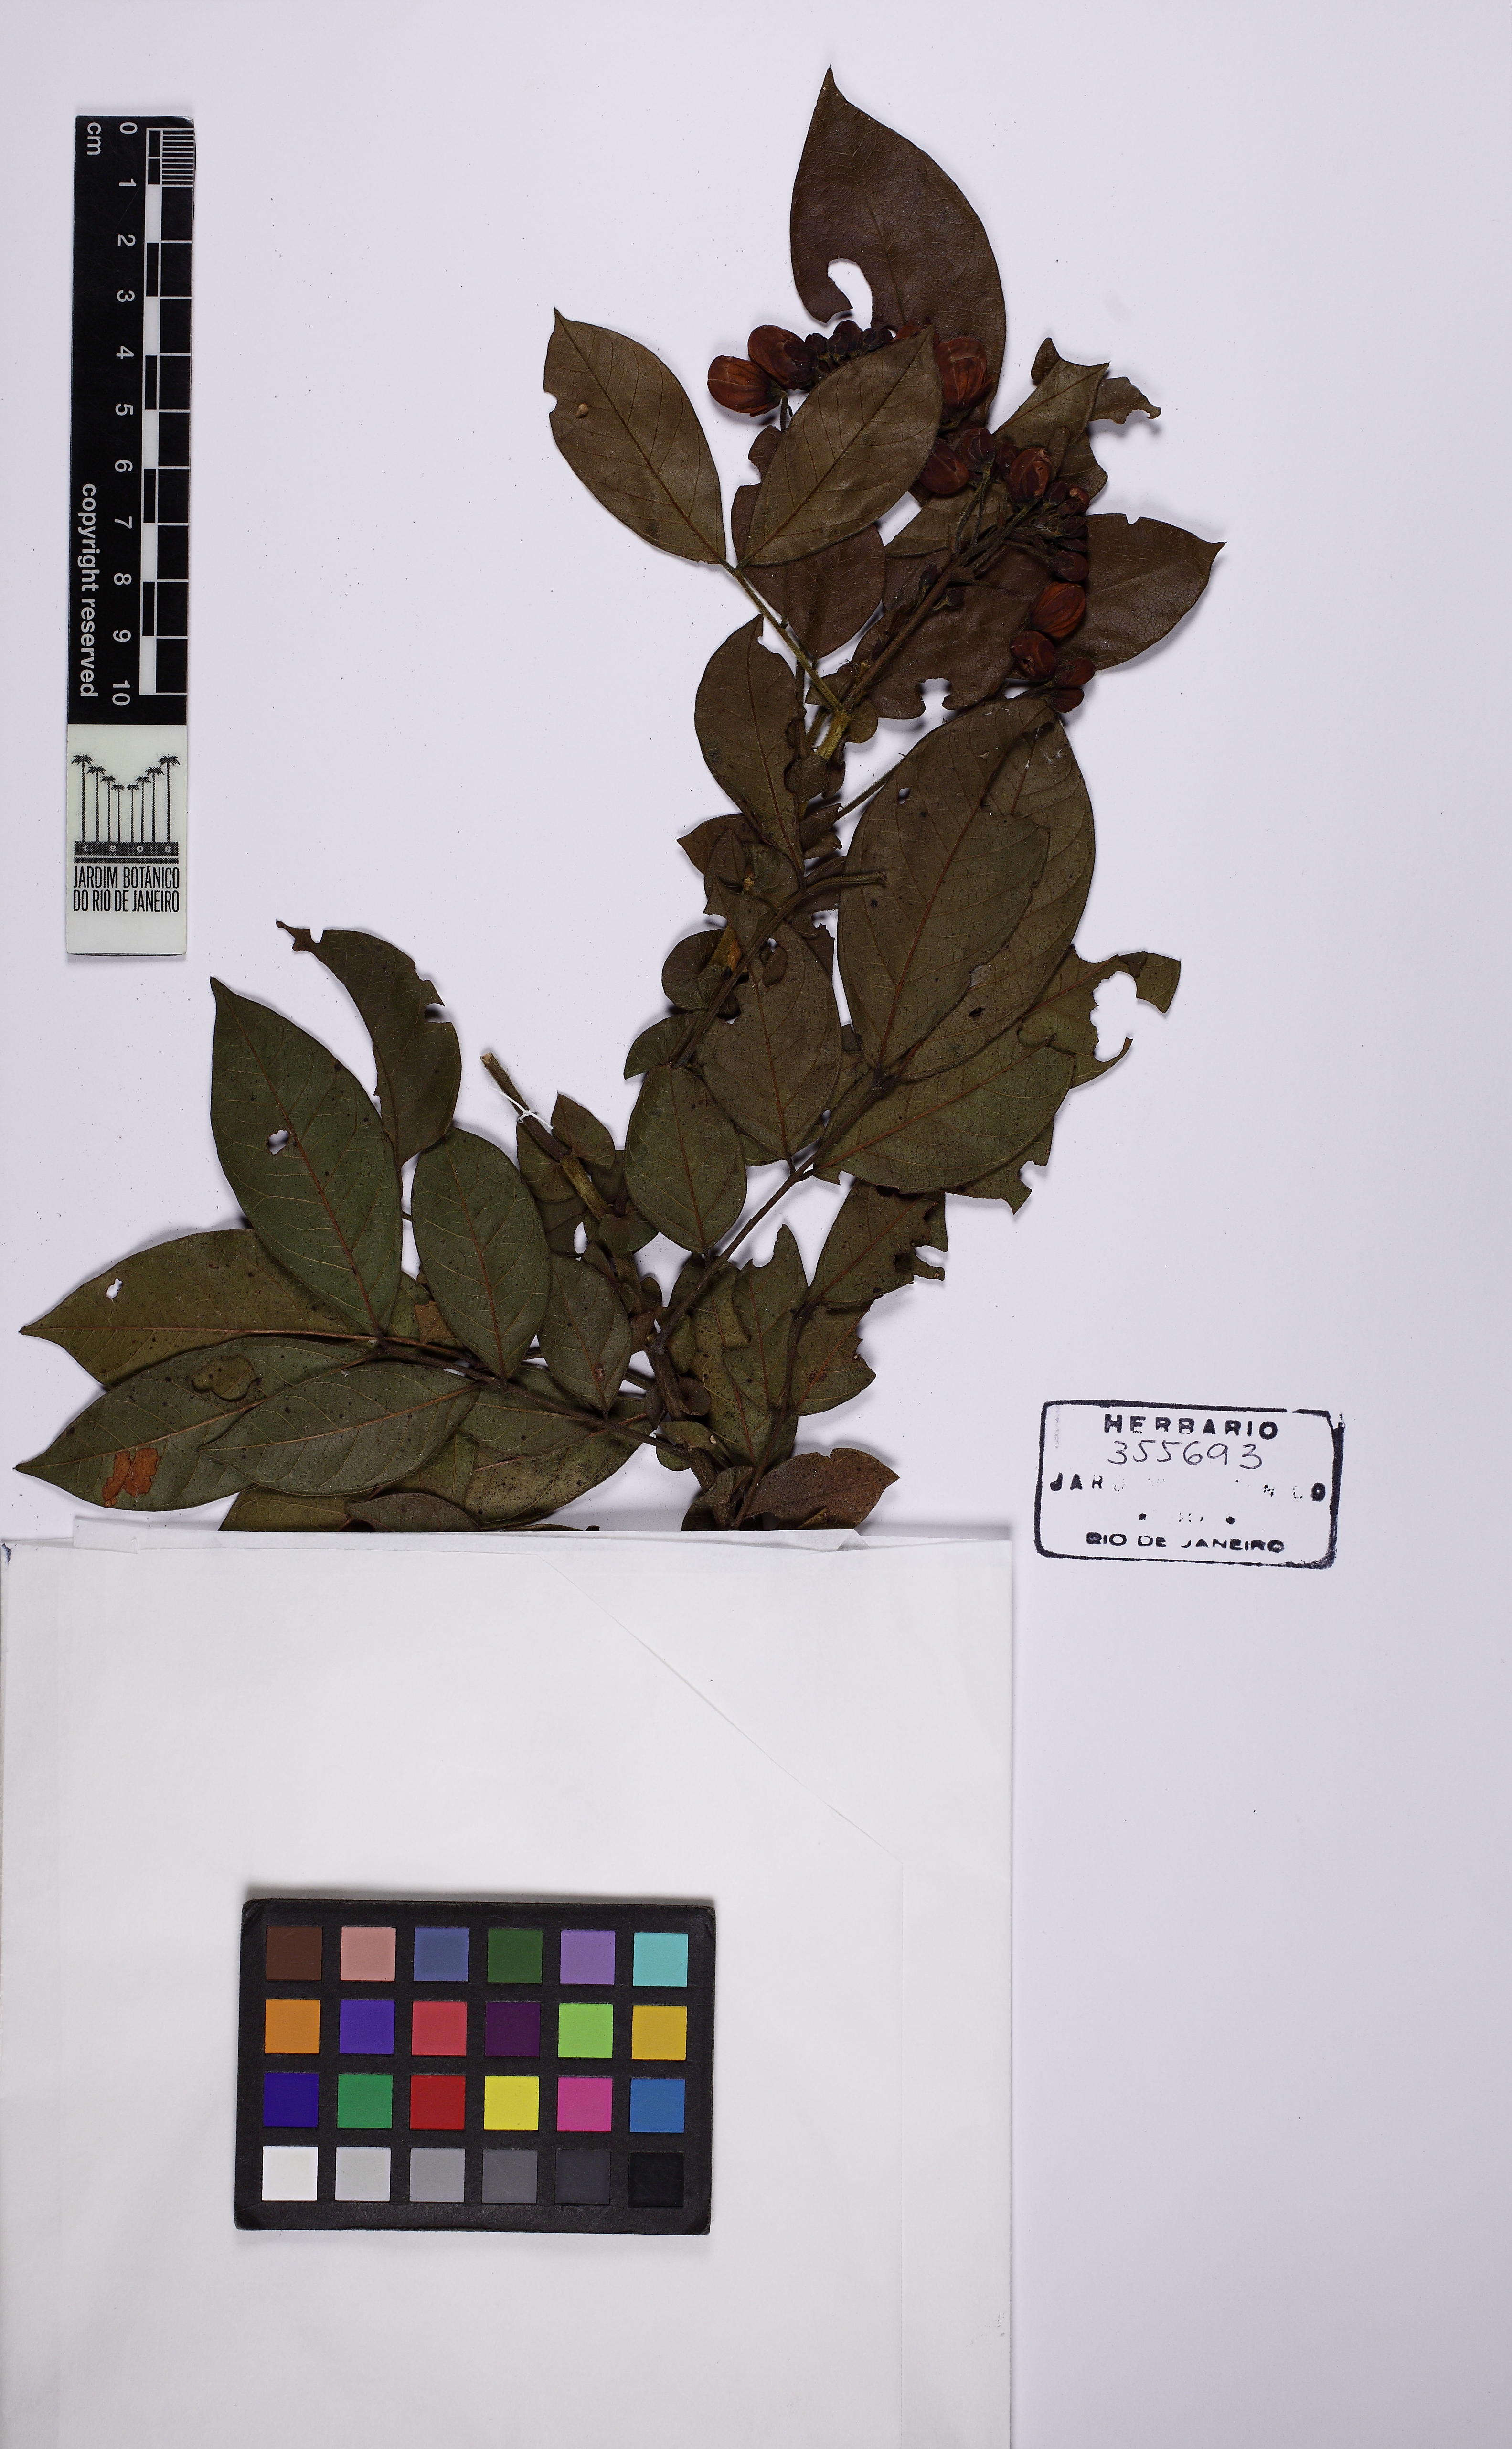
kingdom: Plantae
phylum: Tracheophyta
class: Magnoliopsida
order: Fabales
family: Fabaceae
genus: Senna
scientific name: Senna reniformis
